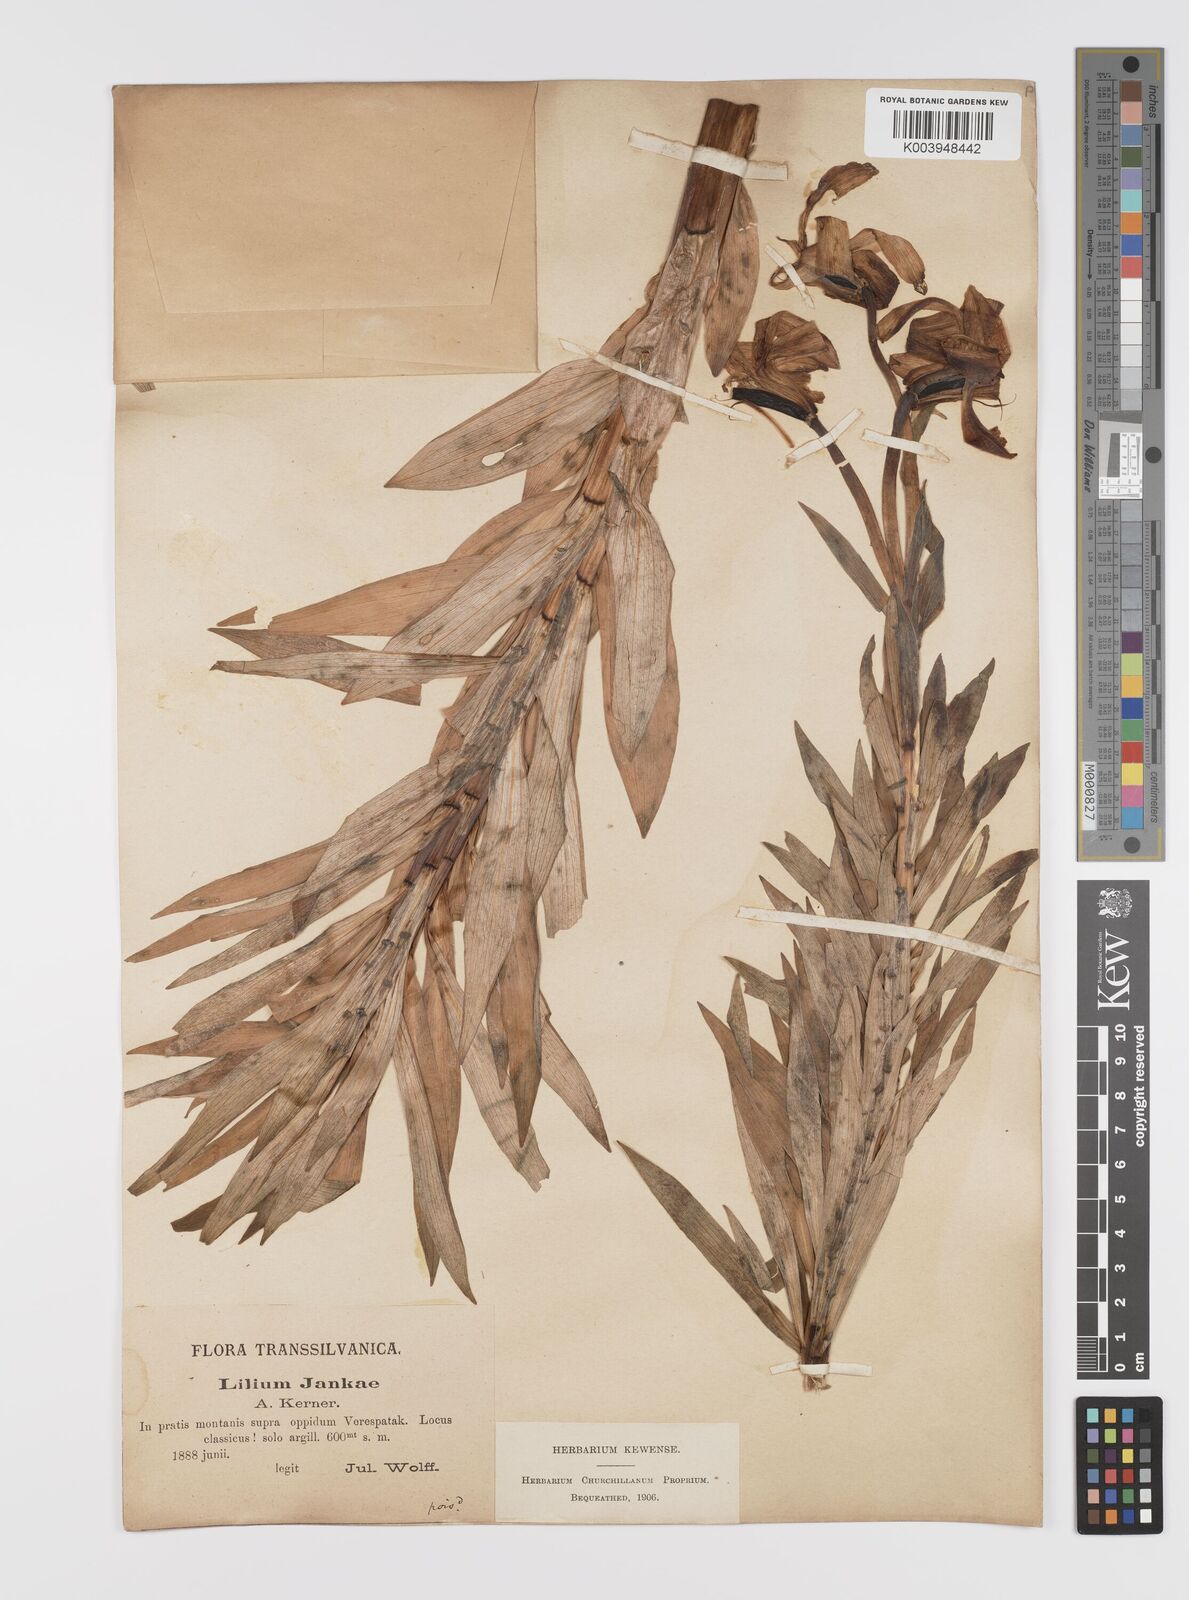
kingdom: Plantae
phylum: Tracheophyta
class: Liliopsida
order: Liliales
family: Liliaceae
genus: Lilium
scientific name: Lilium jankae
